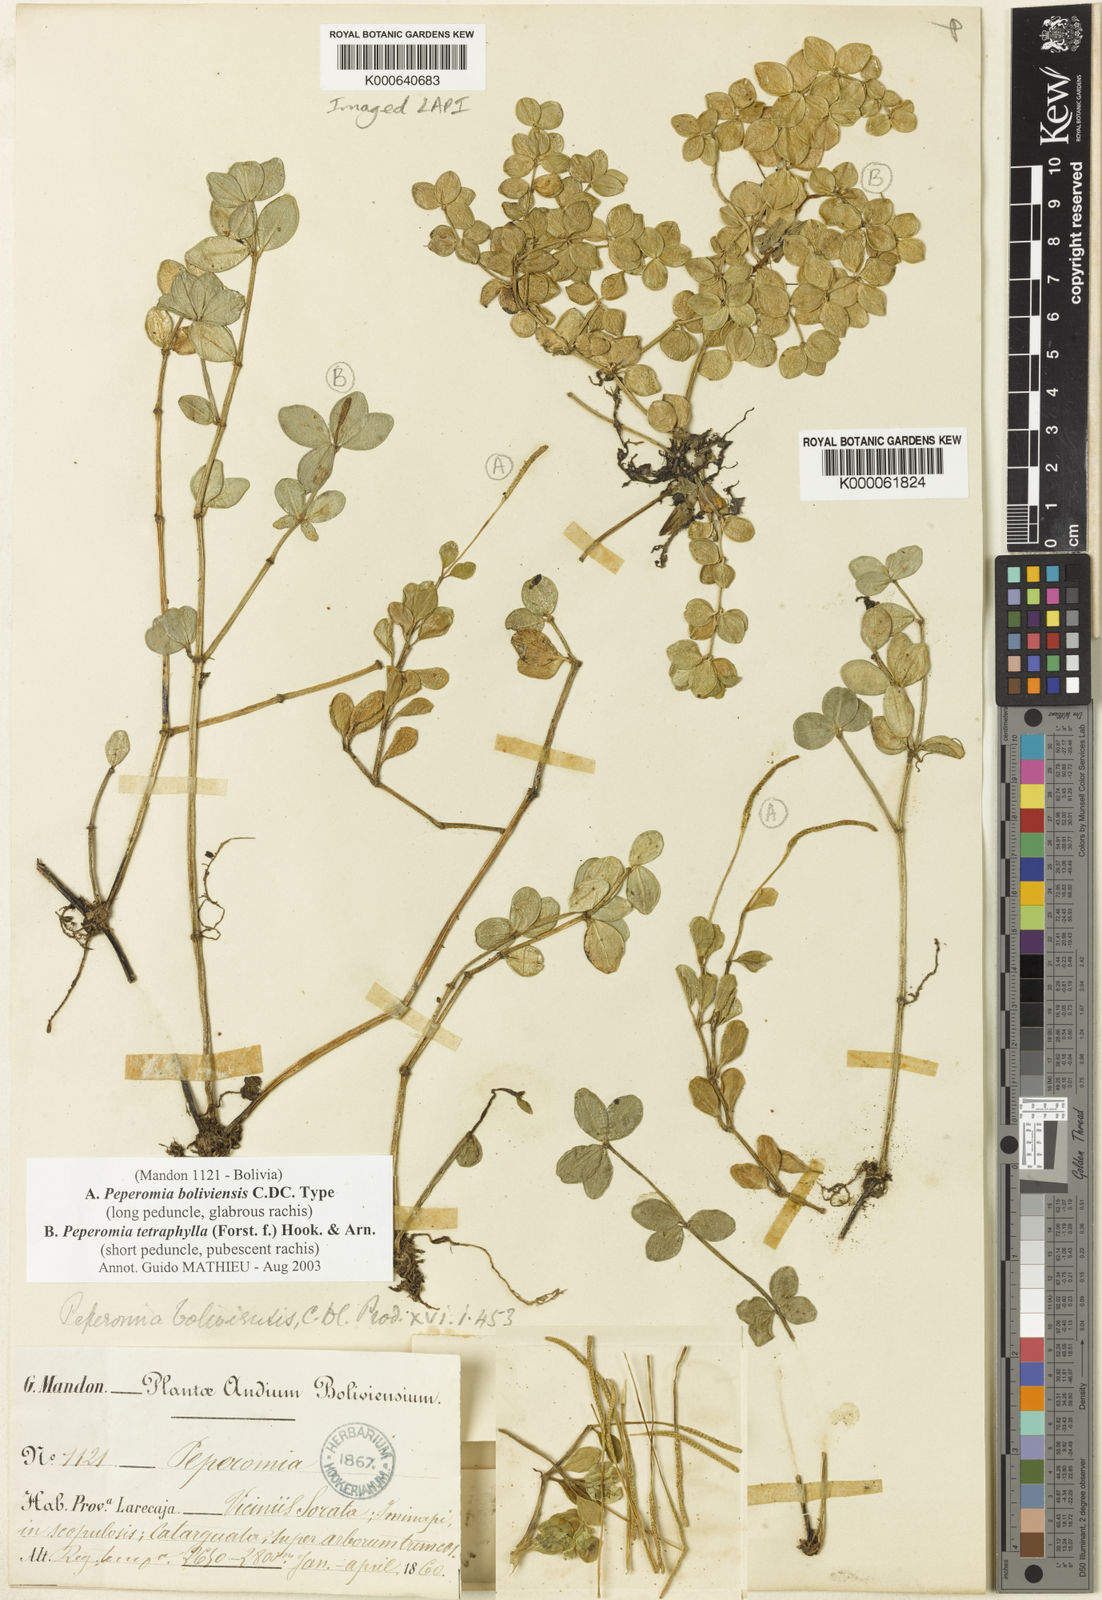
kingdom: Plantae
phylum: Tracheophyta
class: Magnoliopsida
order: Piperales
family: Piperaceae
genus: Peperomia
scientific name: Peperomia boliviensis
